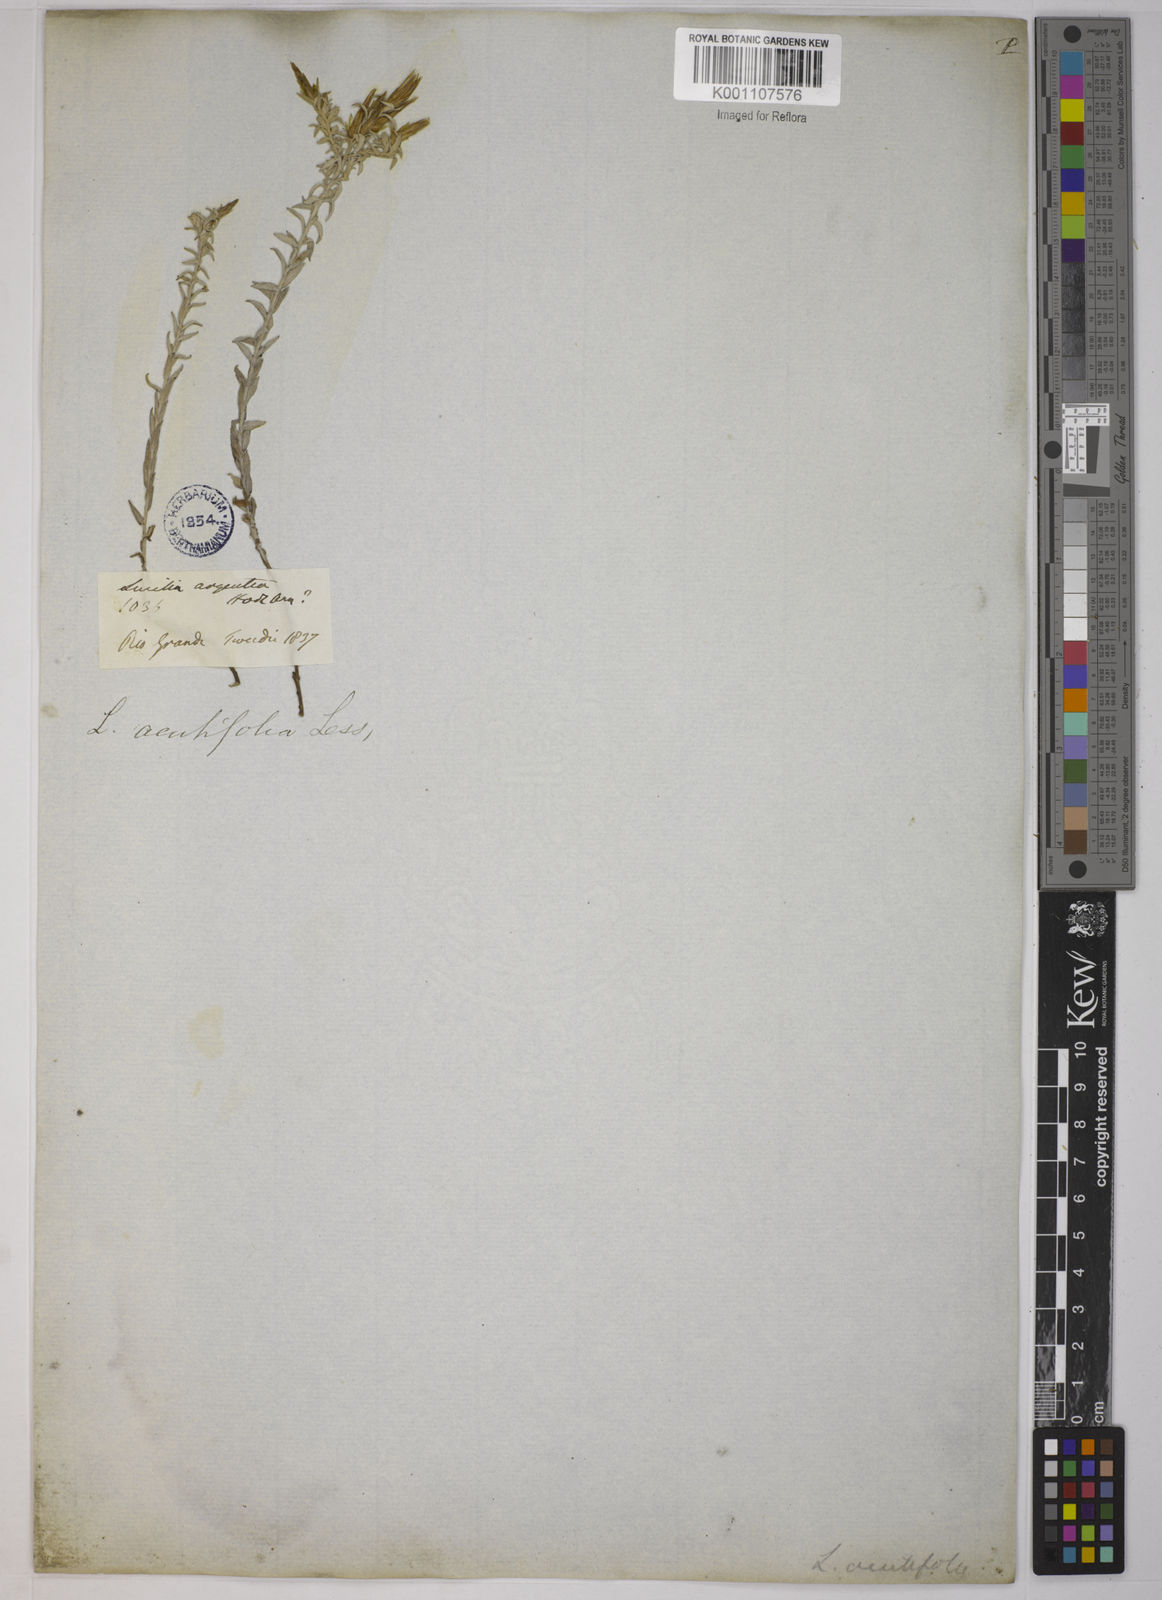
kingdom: Plantae
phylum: Tracheophyta
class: Magnoliopsida
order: Asterales
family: Asteraceae
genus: Lucilia
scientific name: Lucilia acutifolia
